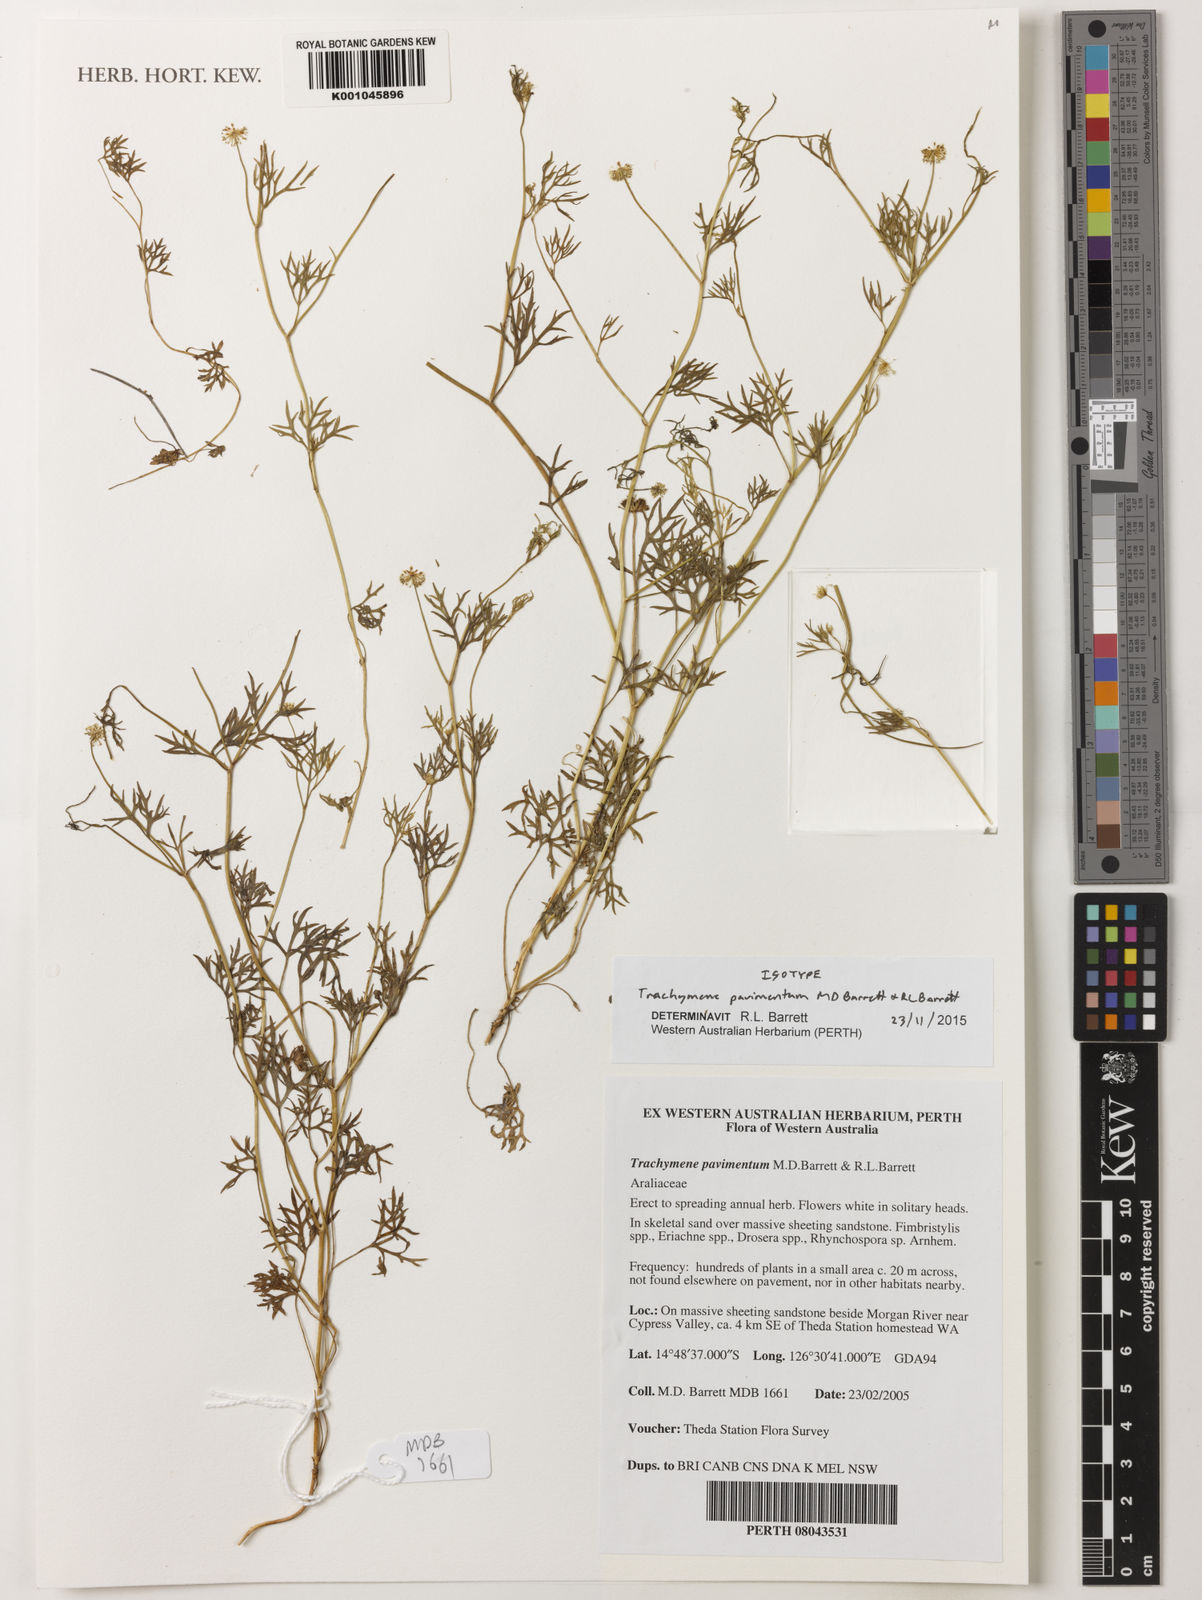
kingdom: Plantae
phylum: Tracheophyta
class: Magnoliopsida
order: Apiales
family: Araliaceae
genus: Trachymene
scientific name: Trachymene pavimentum
